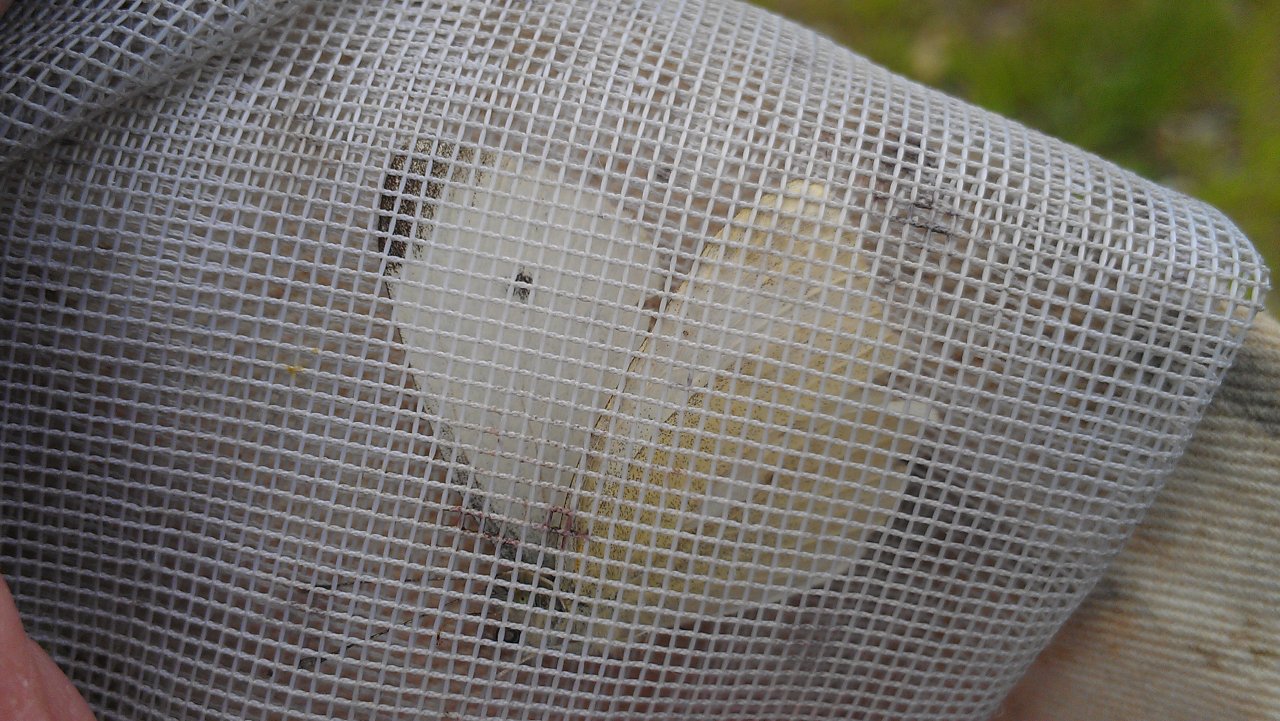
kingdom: Animalia
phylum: Arthropoda
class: Insecta
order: Lepidoptera
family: Pieridae
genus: Pieris
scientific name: Pieris rapae
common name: Cabbage White
